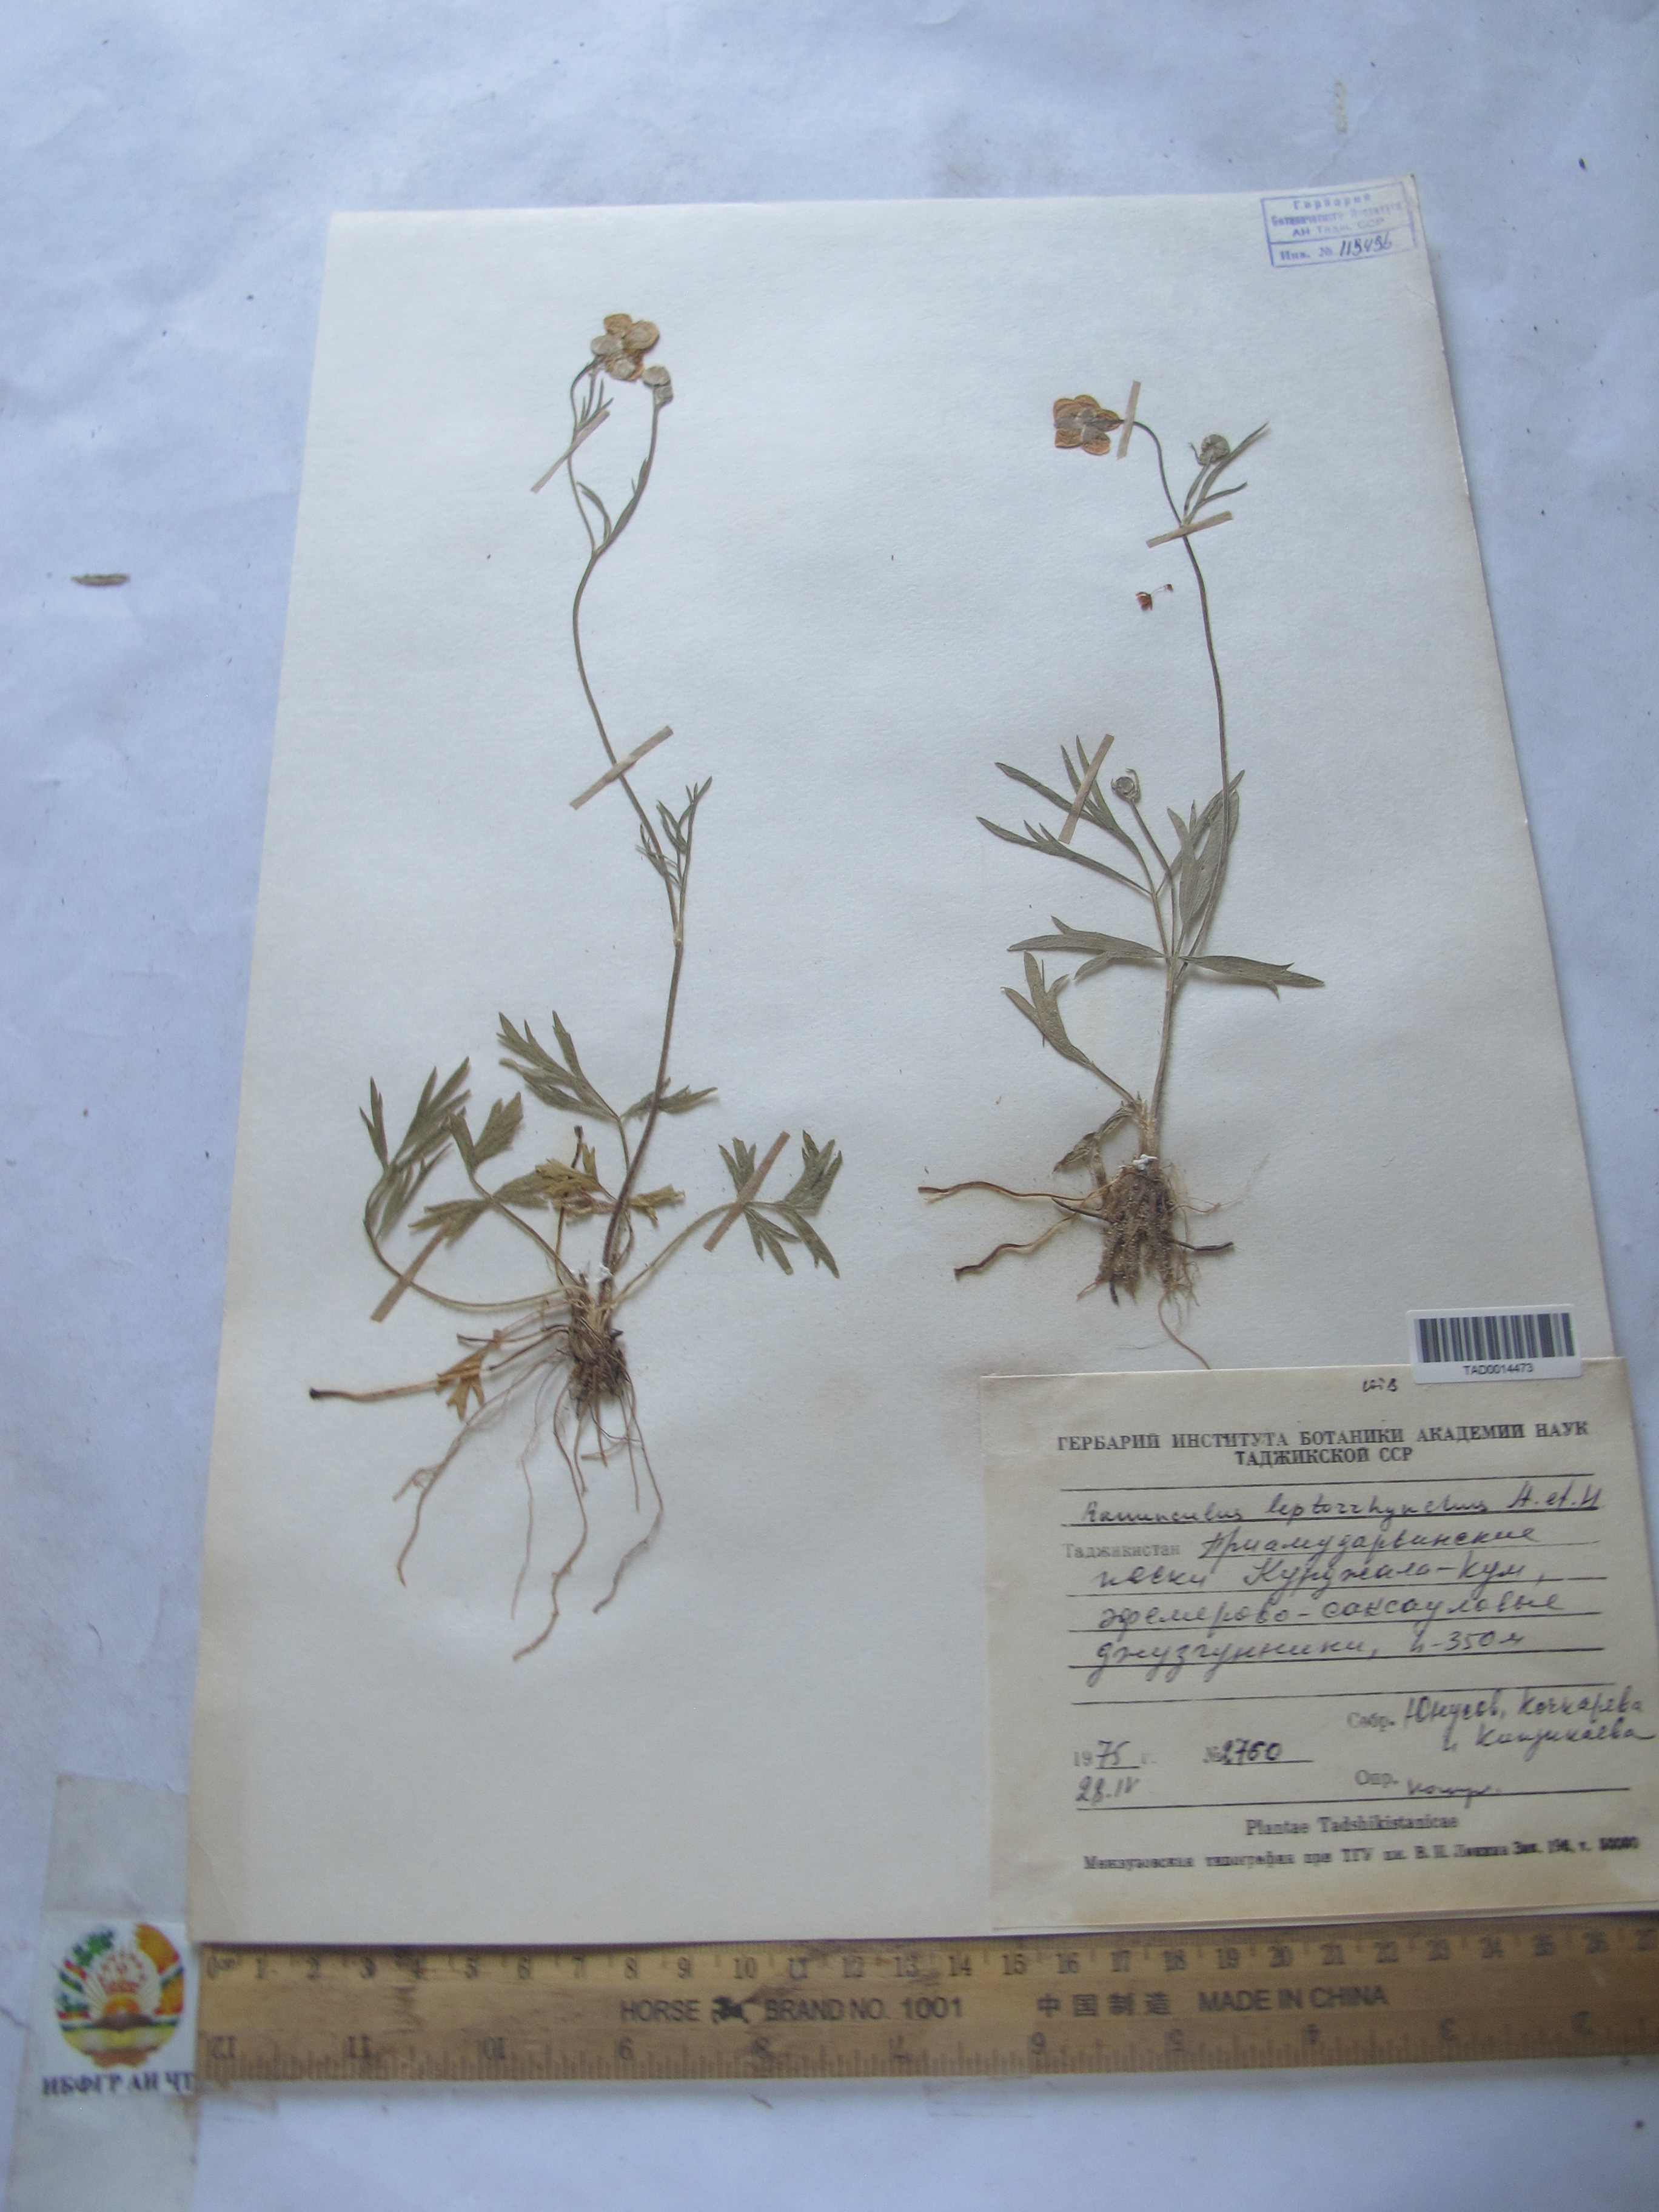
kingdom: Plantae
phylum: Tracheophyta
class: Magnoliopsida
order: Ranunculales
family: Ranunculaceae
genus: Ranunculus
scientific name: Ranunculus leptorrhynchus
